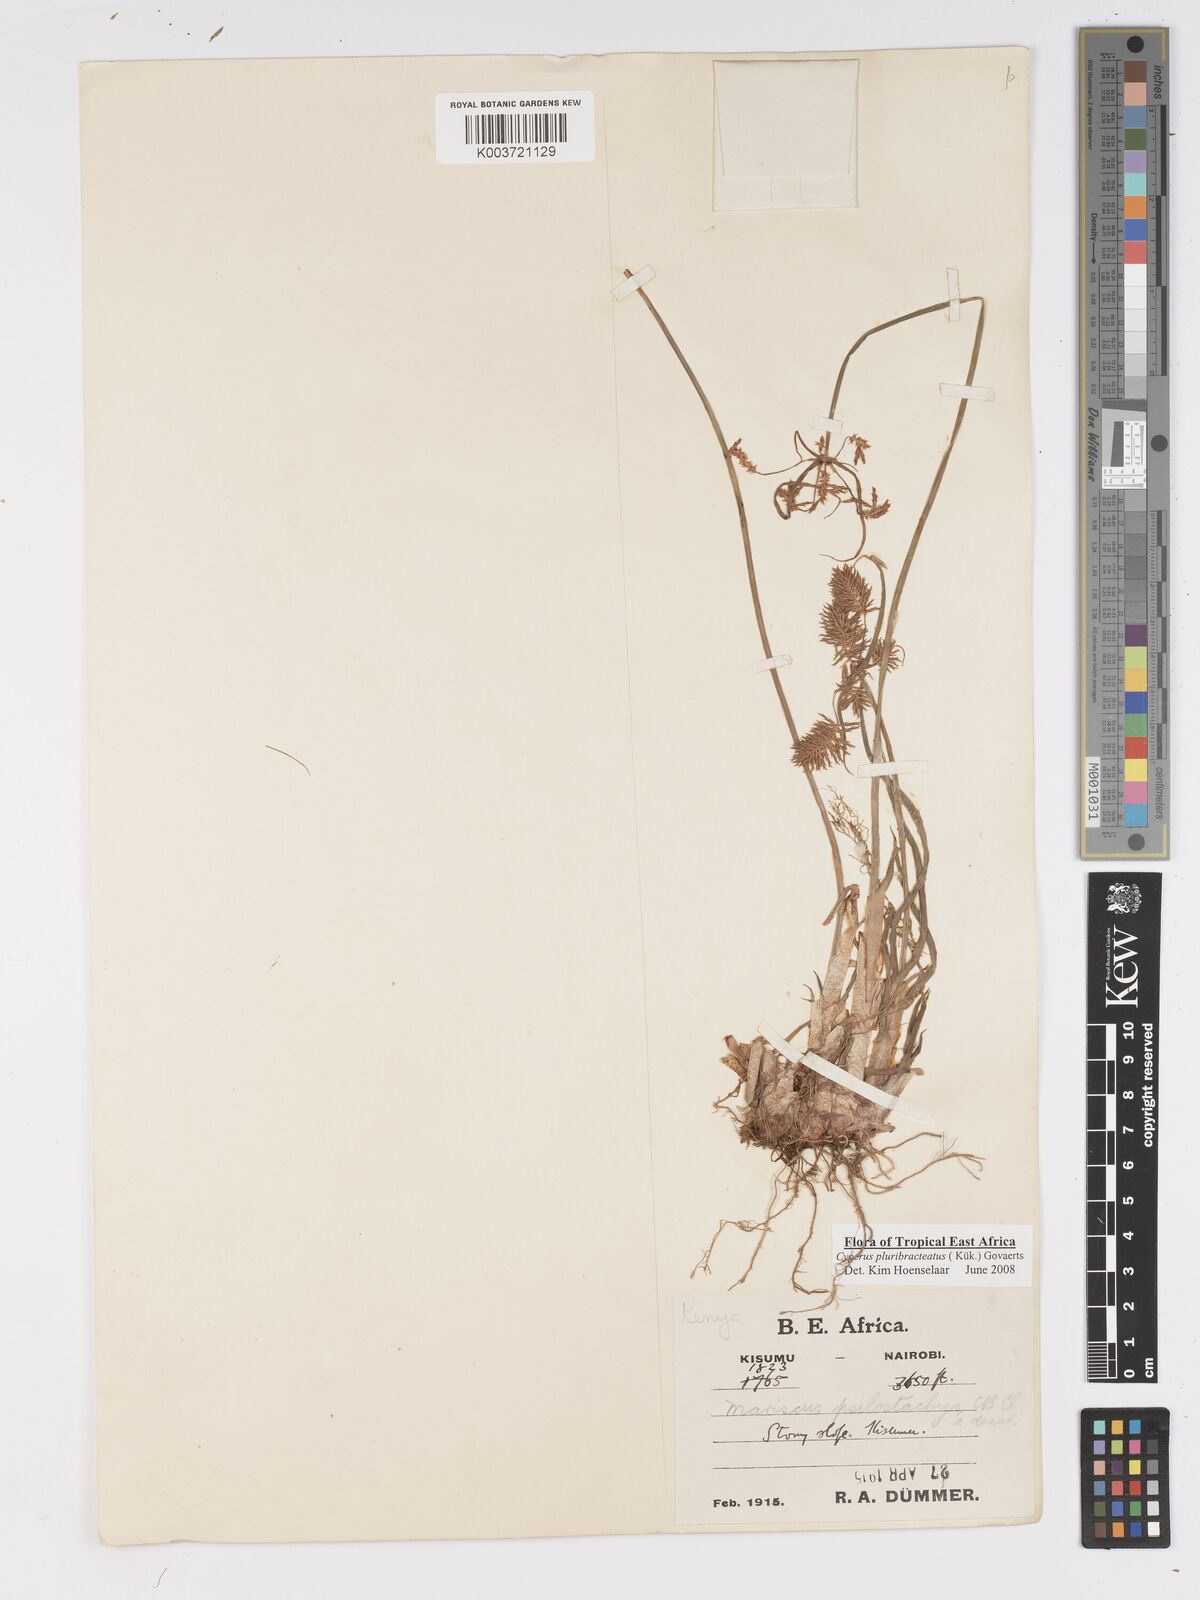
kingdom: Plantae
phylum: Tracheophyta
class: Liliopsida
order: Poales
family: Cyperaceae
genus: Cyperus
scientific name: Cyperus trigonellus
